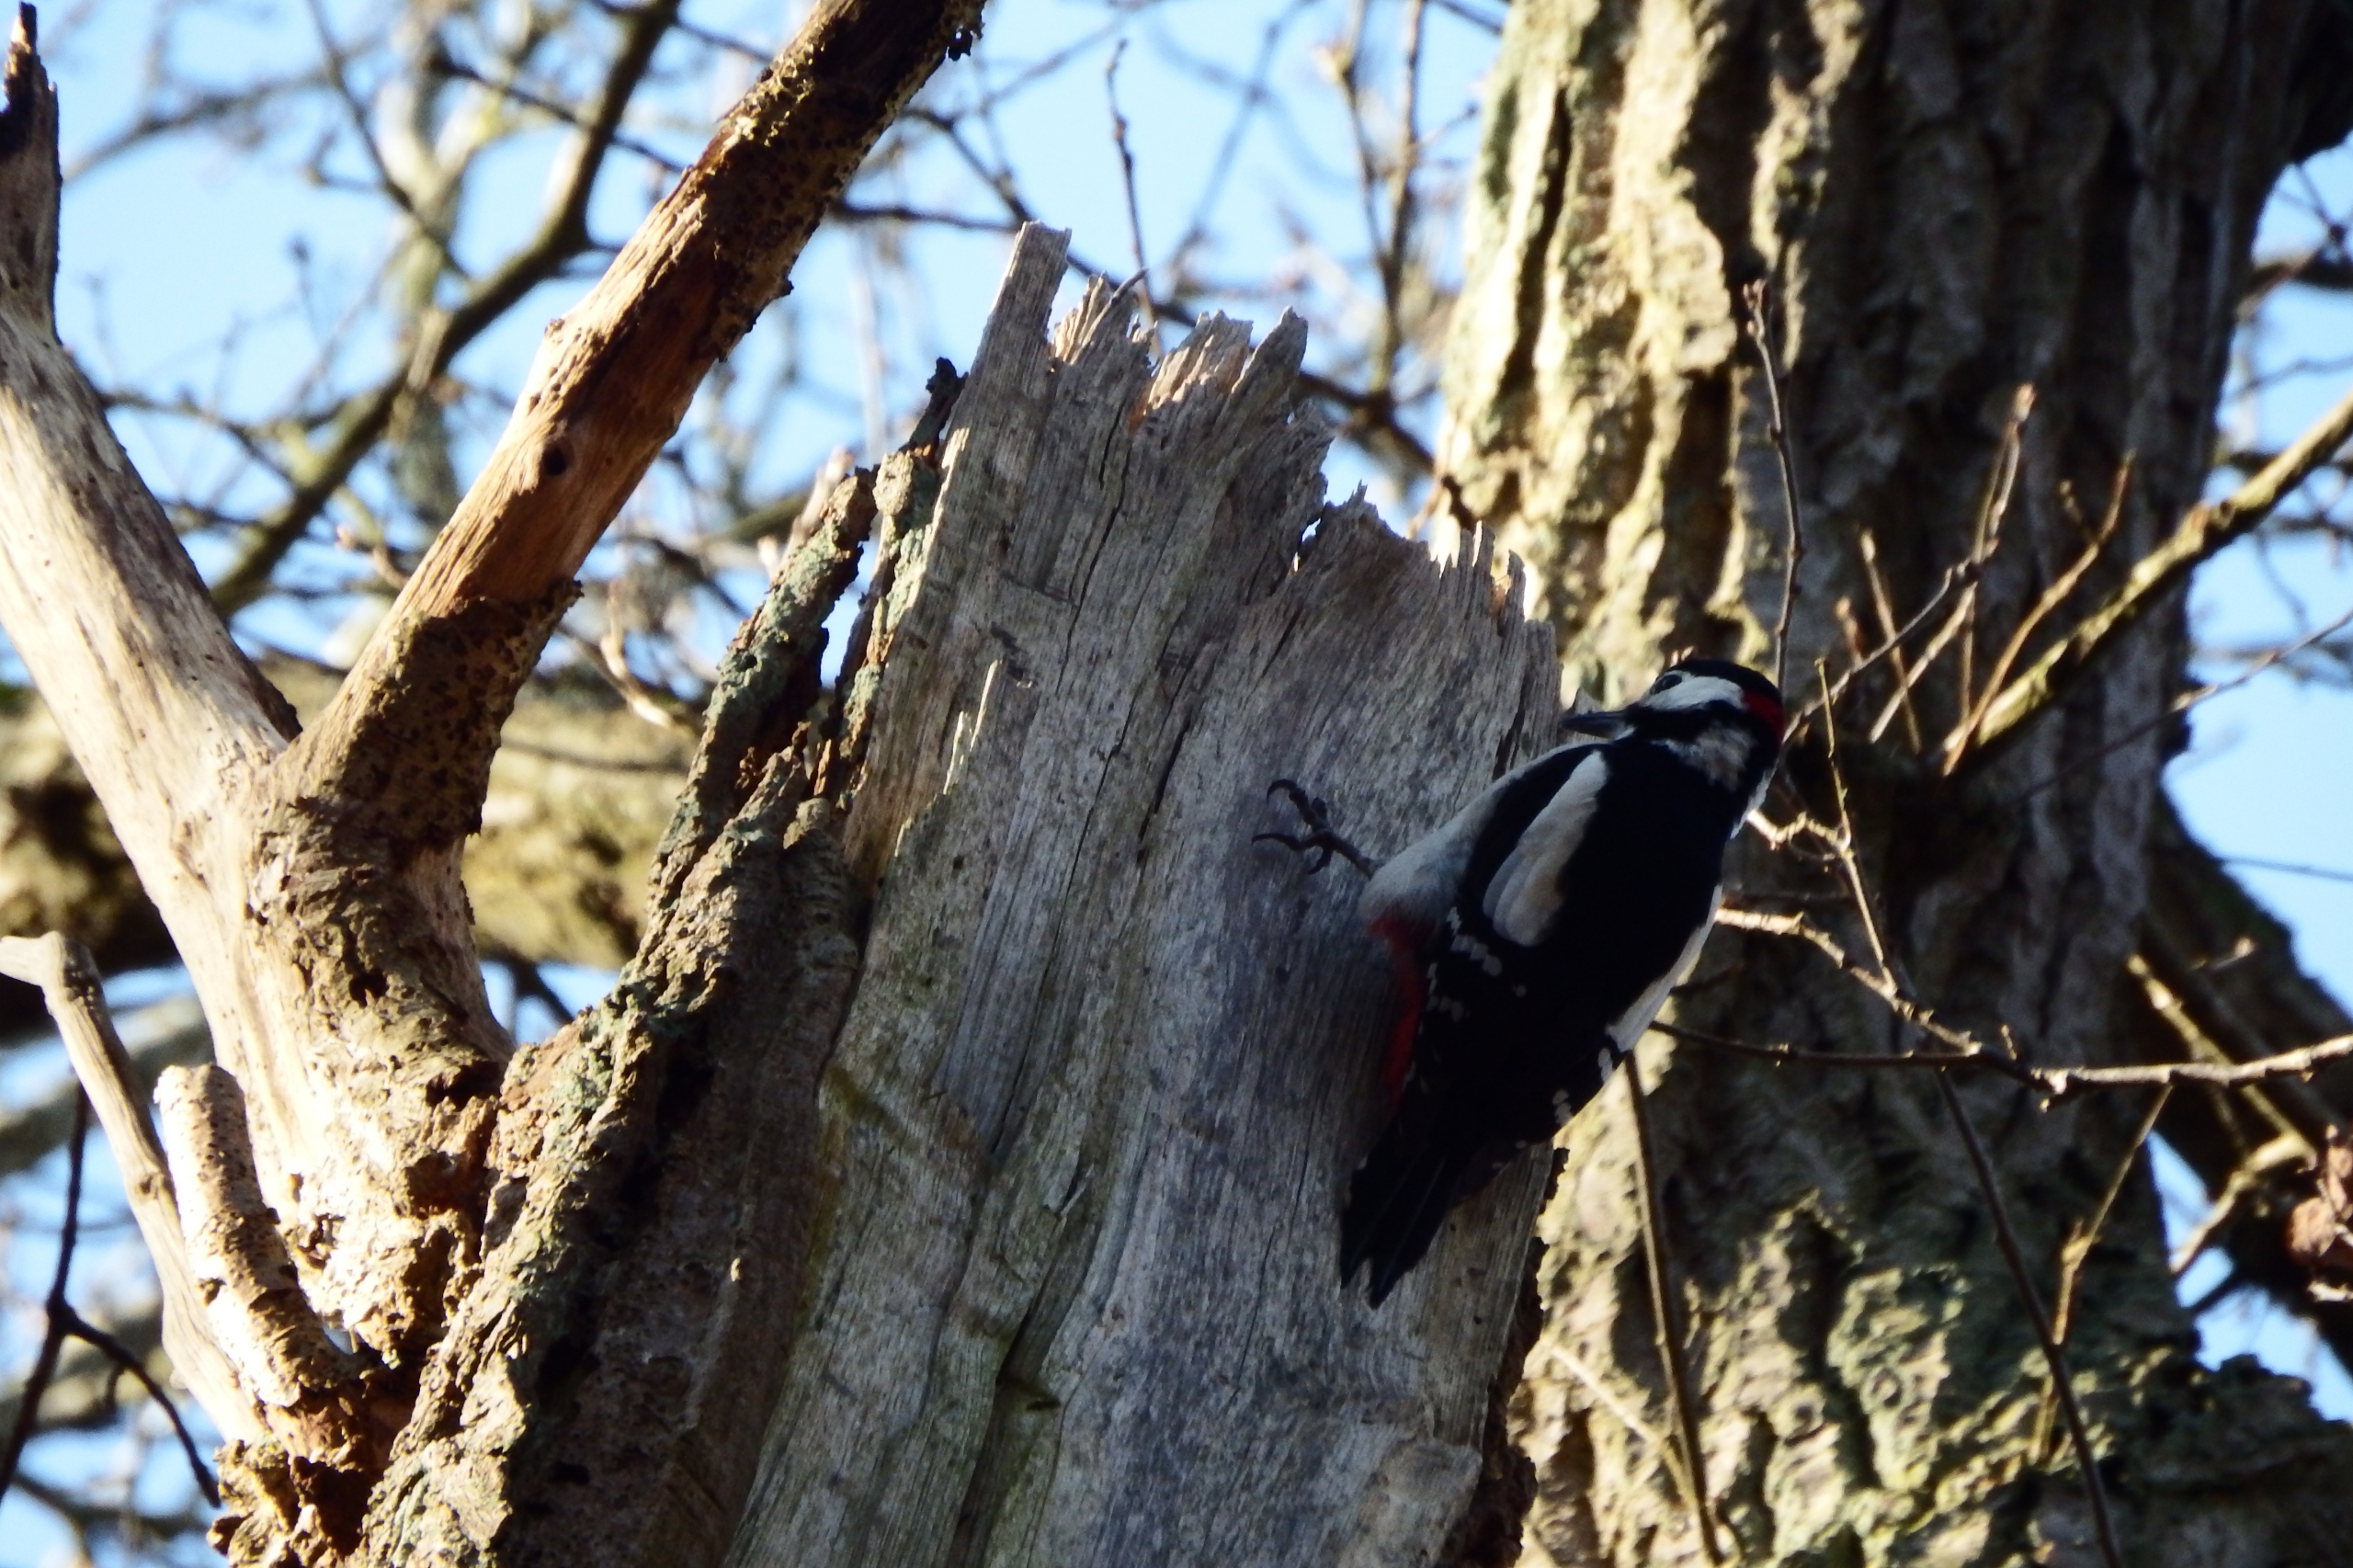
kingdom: Animalia
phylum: Chordata
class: Aves
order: Piciformes
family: Picidae
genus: Dendrocopos
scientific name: Dendrocopos major
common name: Stor flagspætte
